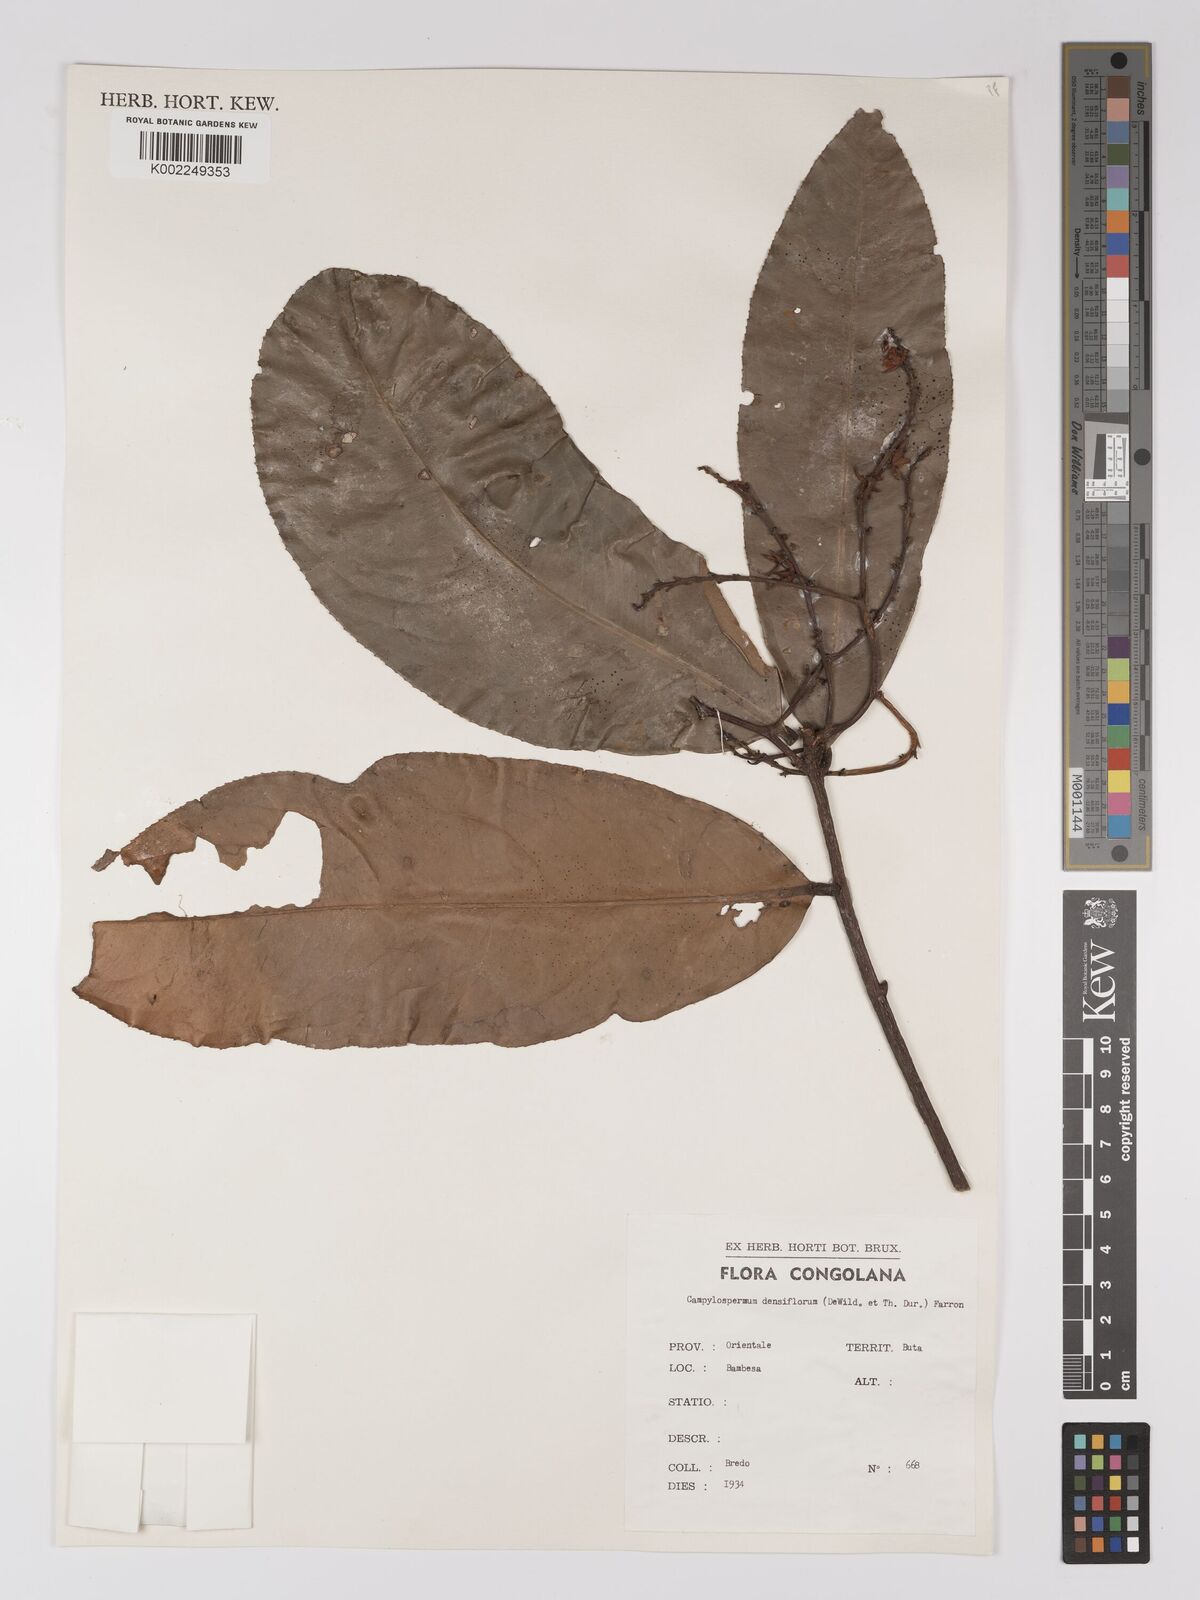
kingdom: Plantae
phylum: Tracheophyta
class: Magnoliopsida
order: Malpighiales
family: Ochnaceae
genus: Gomphia
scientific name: Gomphia densiflora
